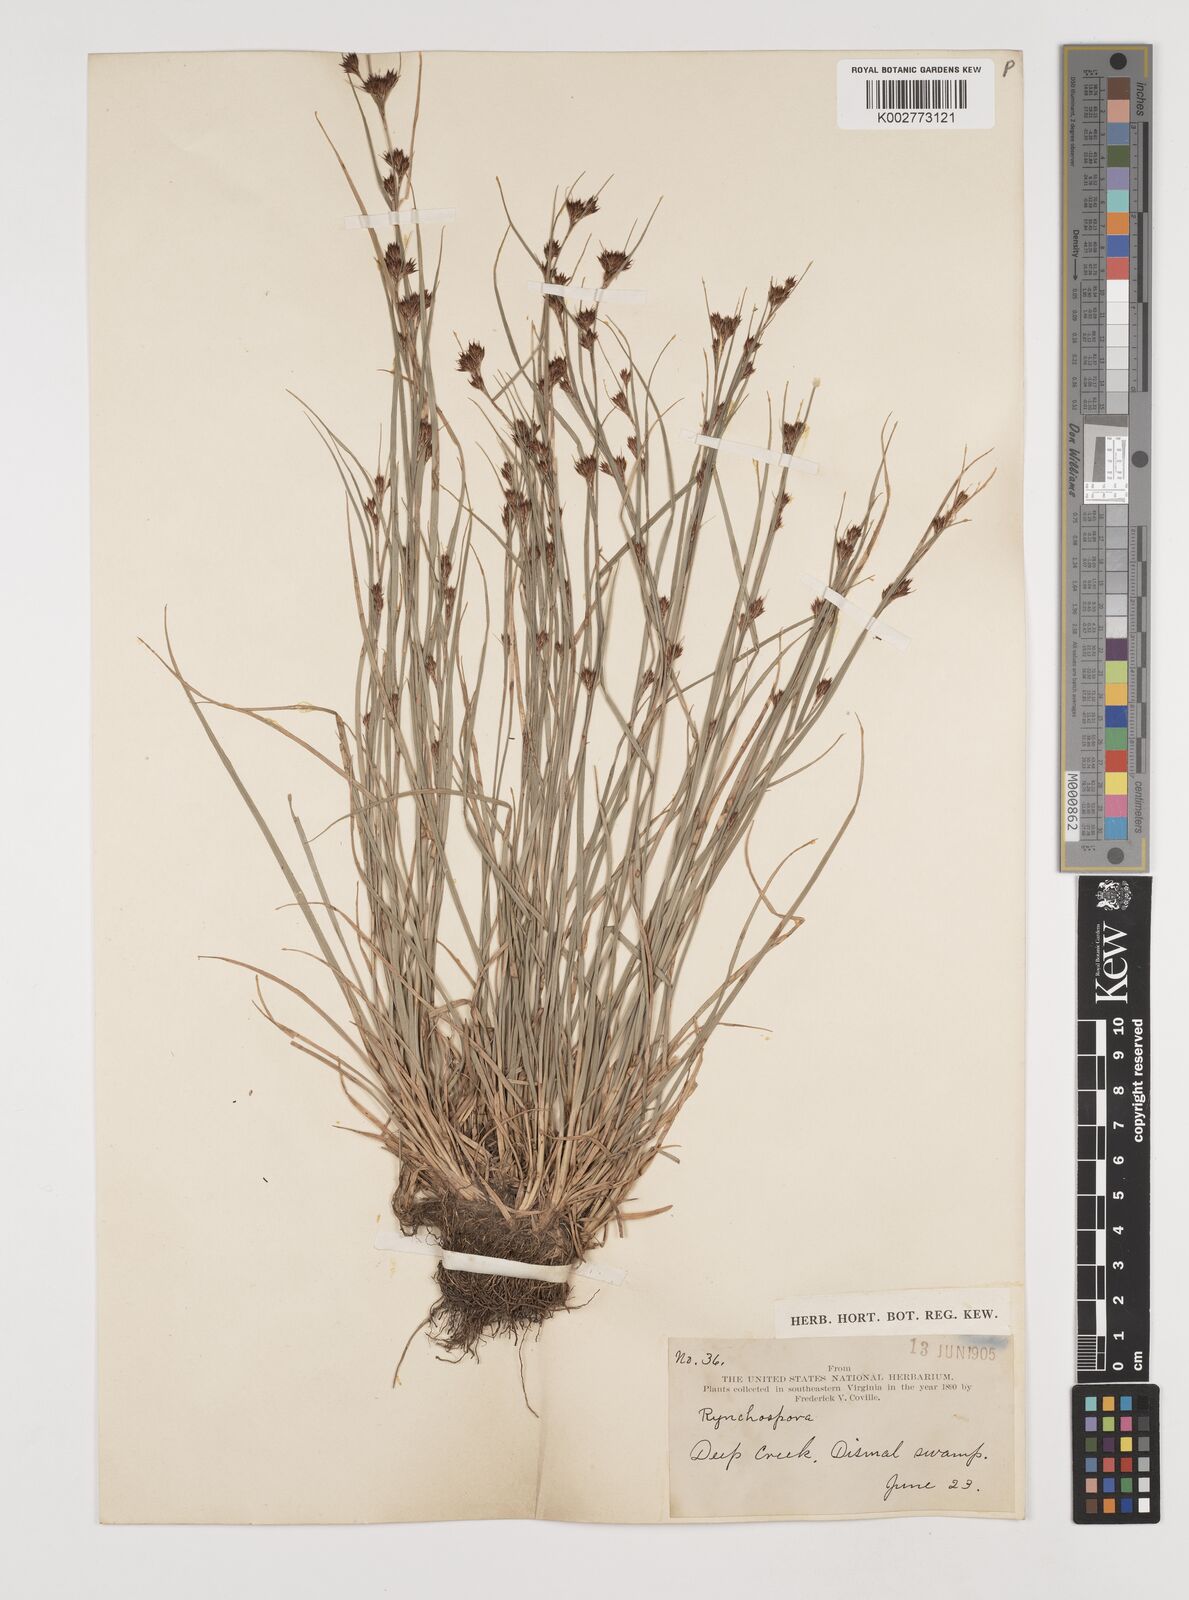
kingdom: Plantae
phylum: Tracheophyta
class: Liliopsida
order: Poales
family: Cyperaceae
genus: Rhynchospora
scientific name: Rhynchospora
